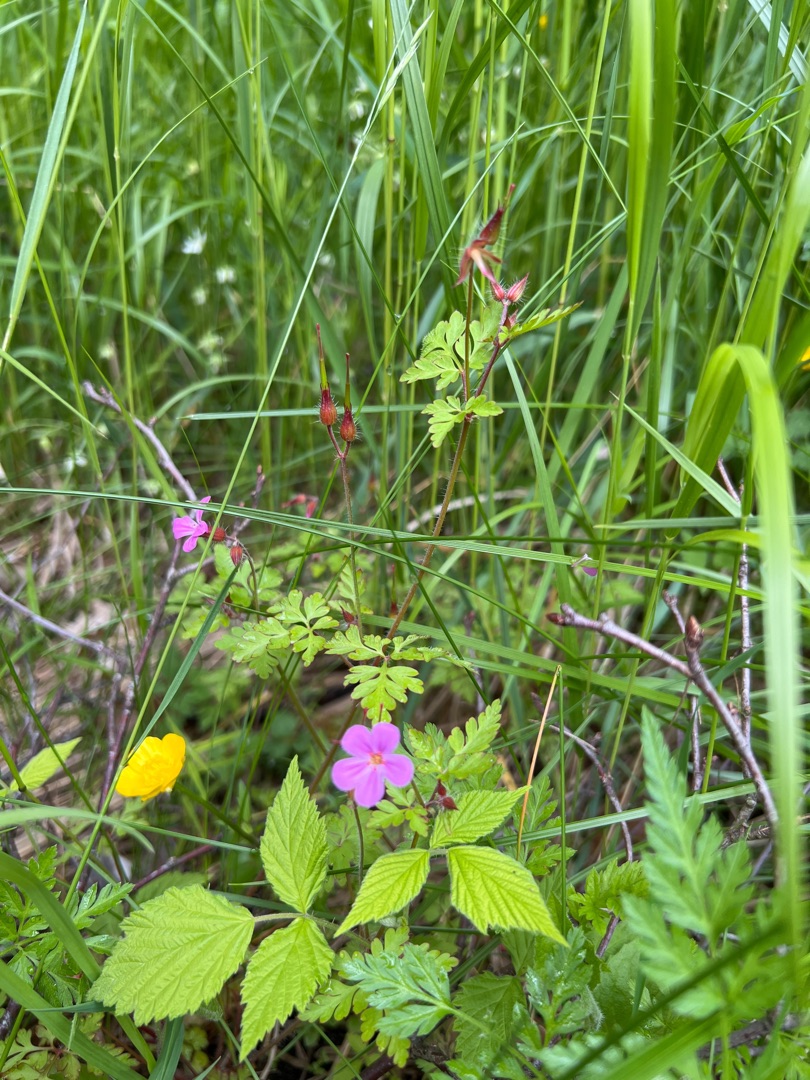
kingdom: Plantae
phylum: Tracheophyta
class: Magnoliopsida
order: Geraniales
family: Geraniaceae
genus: Geranium
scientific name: Geranium robertianum
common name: Stinkende storkenæb
